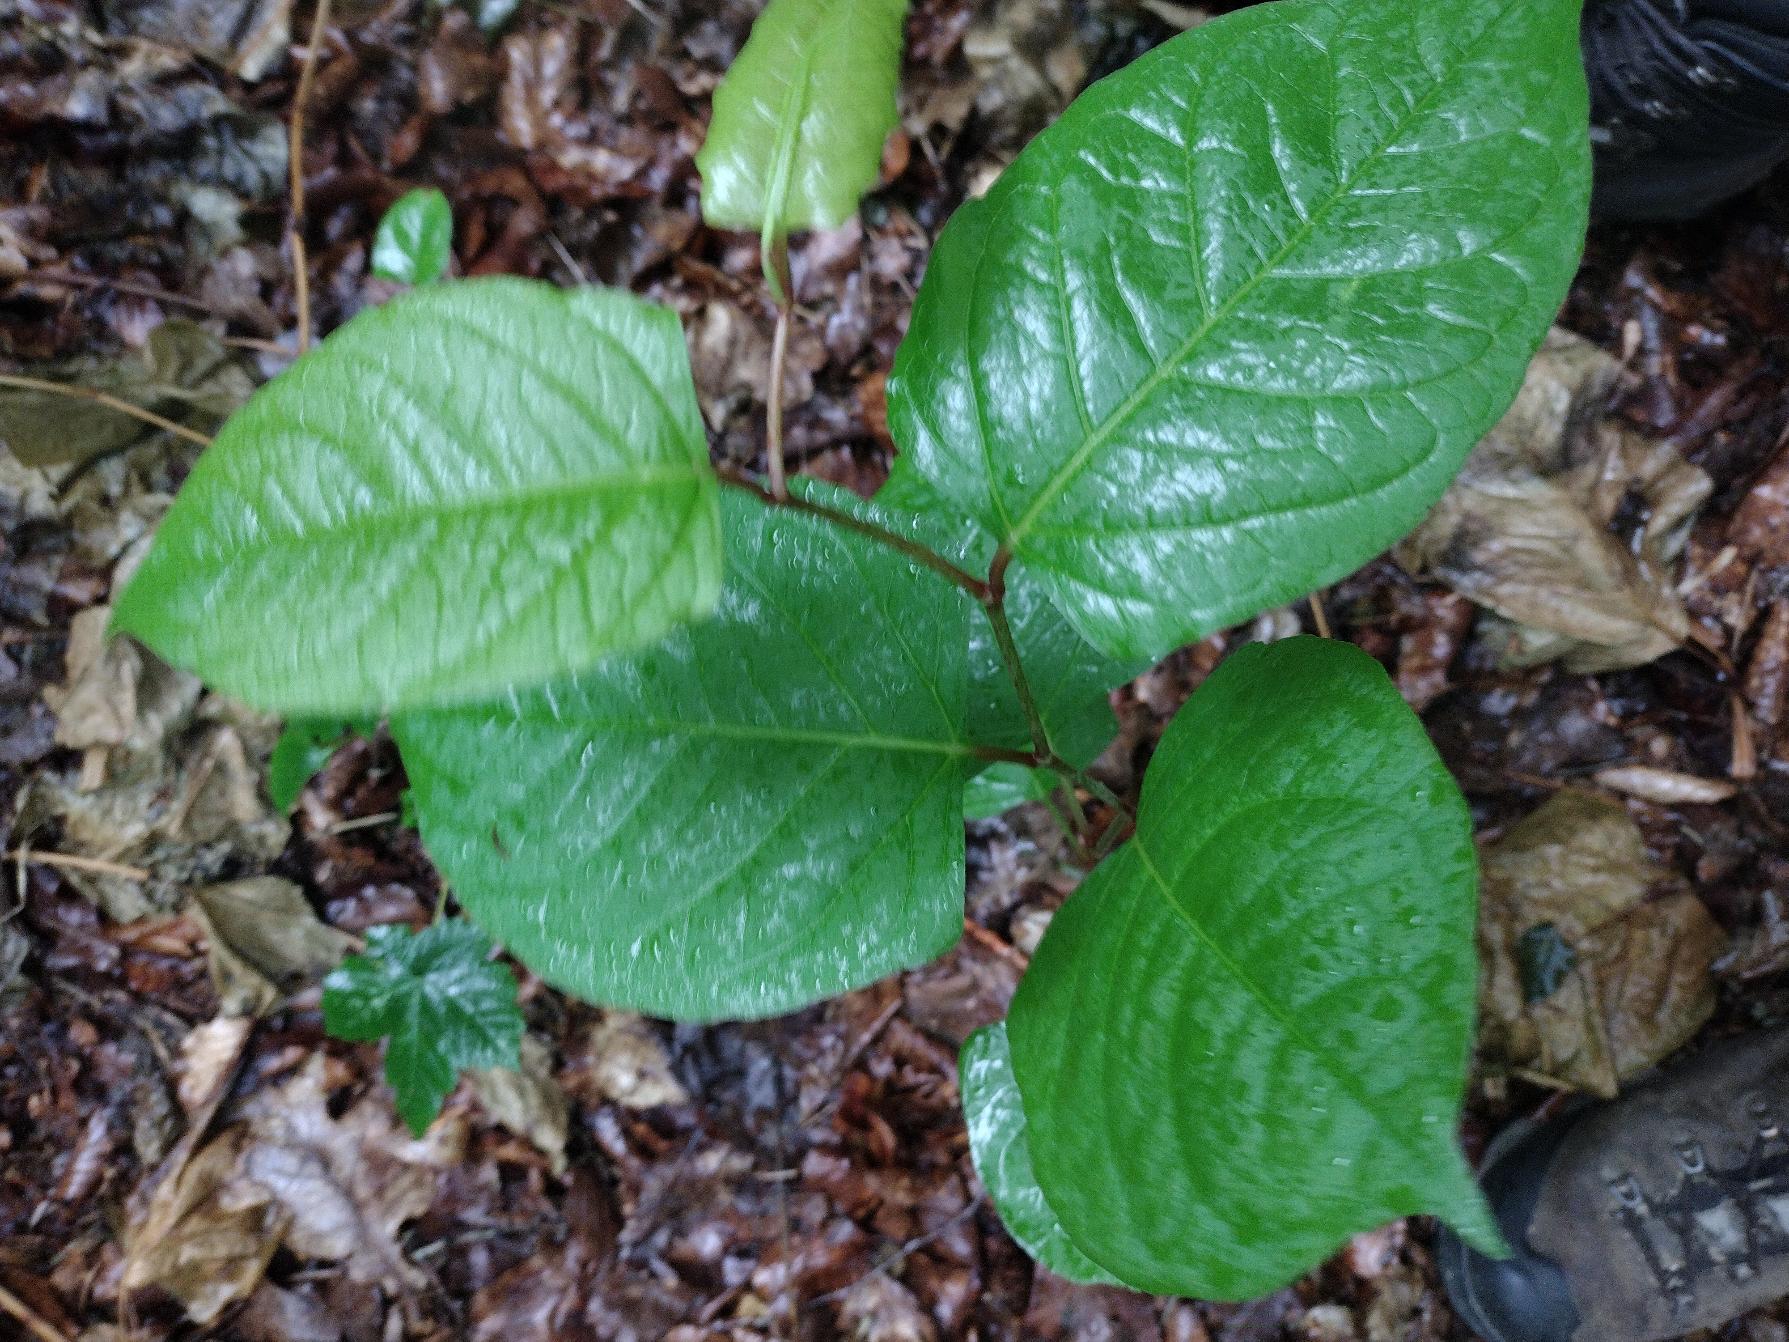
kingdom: Plantae
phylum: Tracheophyta
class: Magnoliopsida
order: Caryophyllales
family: Polygonaceae
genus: Reynoutria
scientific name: Reynoutria japonica
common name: Japan-pileurt
